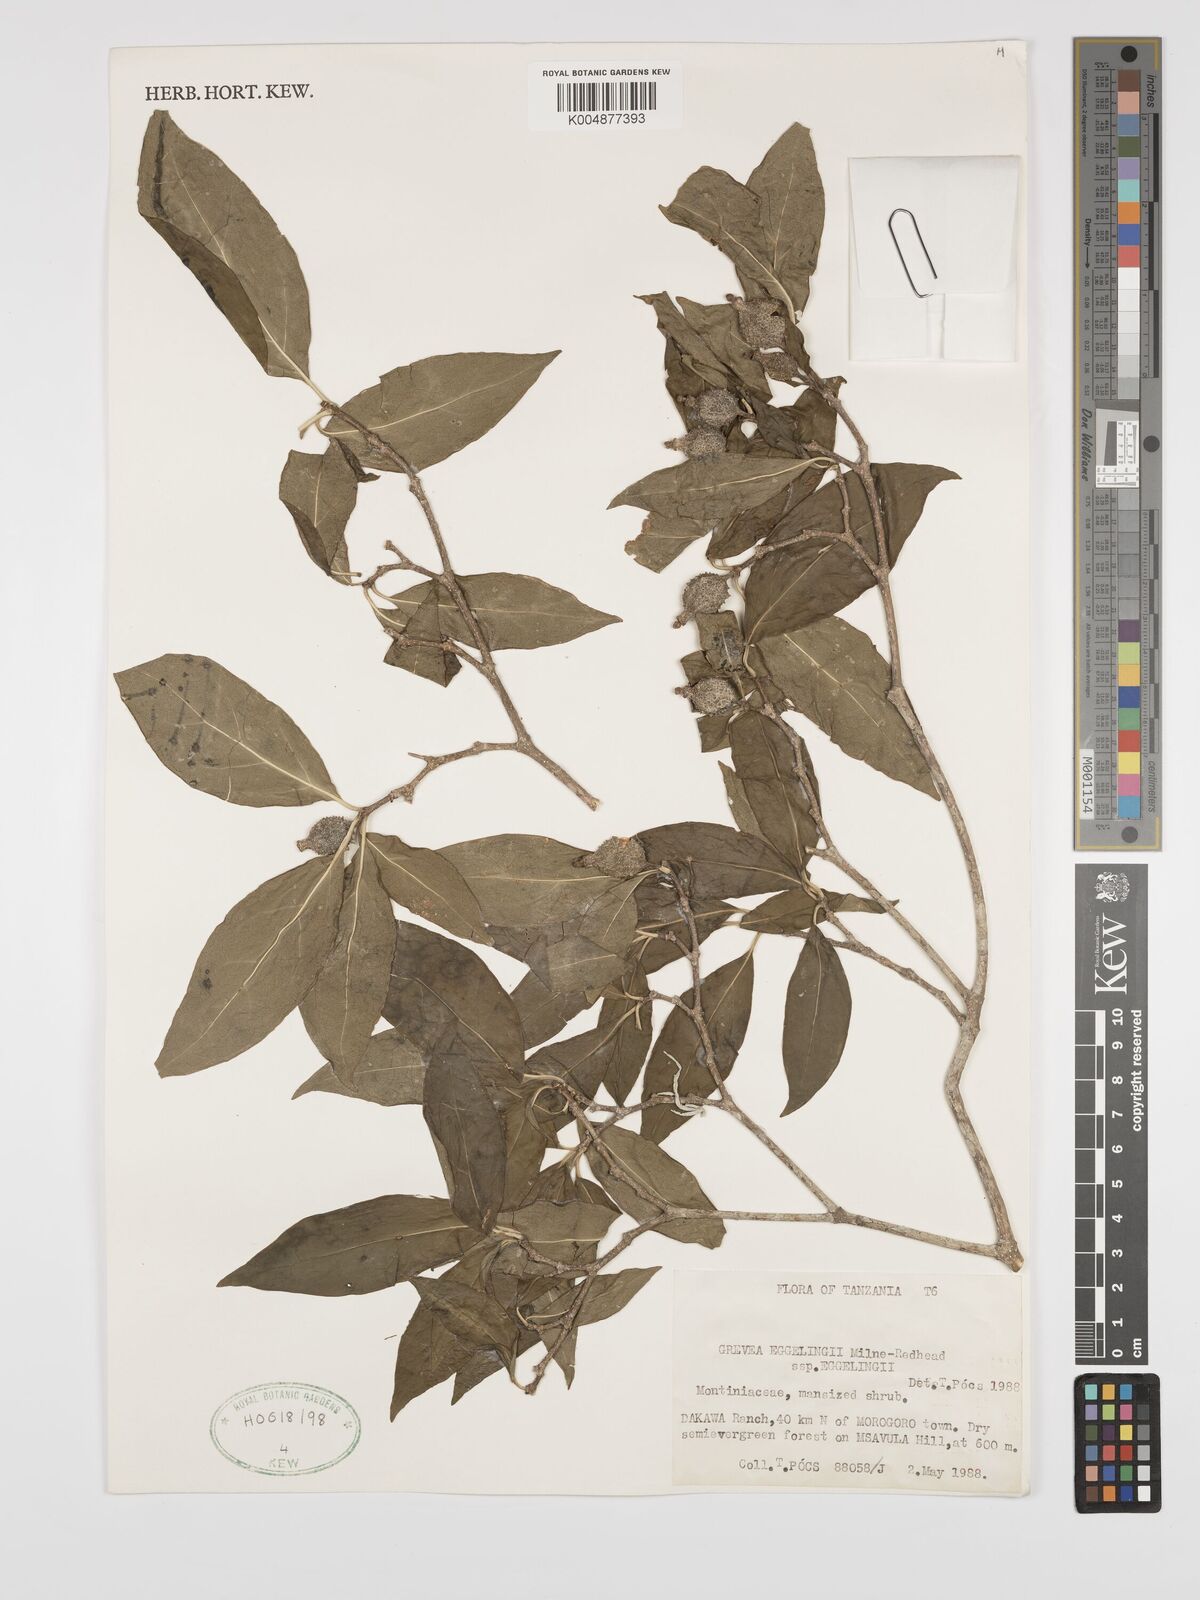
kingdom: Plantae
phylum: Tracheophyta
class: Magnoliopsida
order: Solanales
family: Montiniaceae
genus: Grevea
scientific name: Grevea eggelingii
